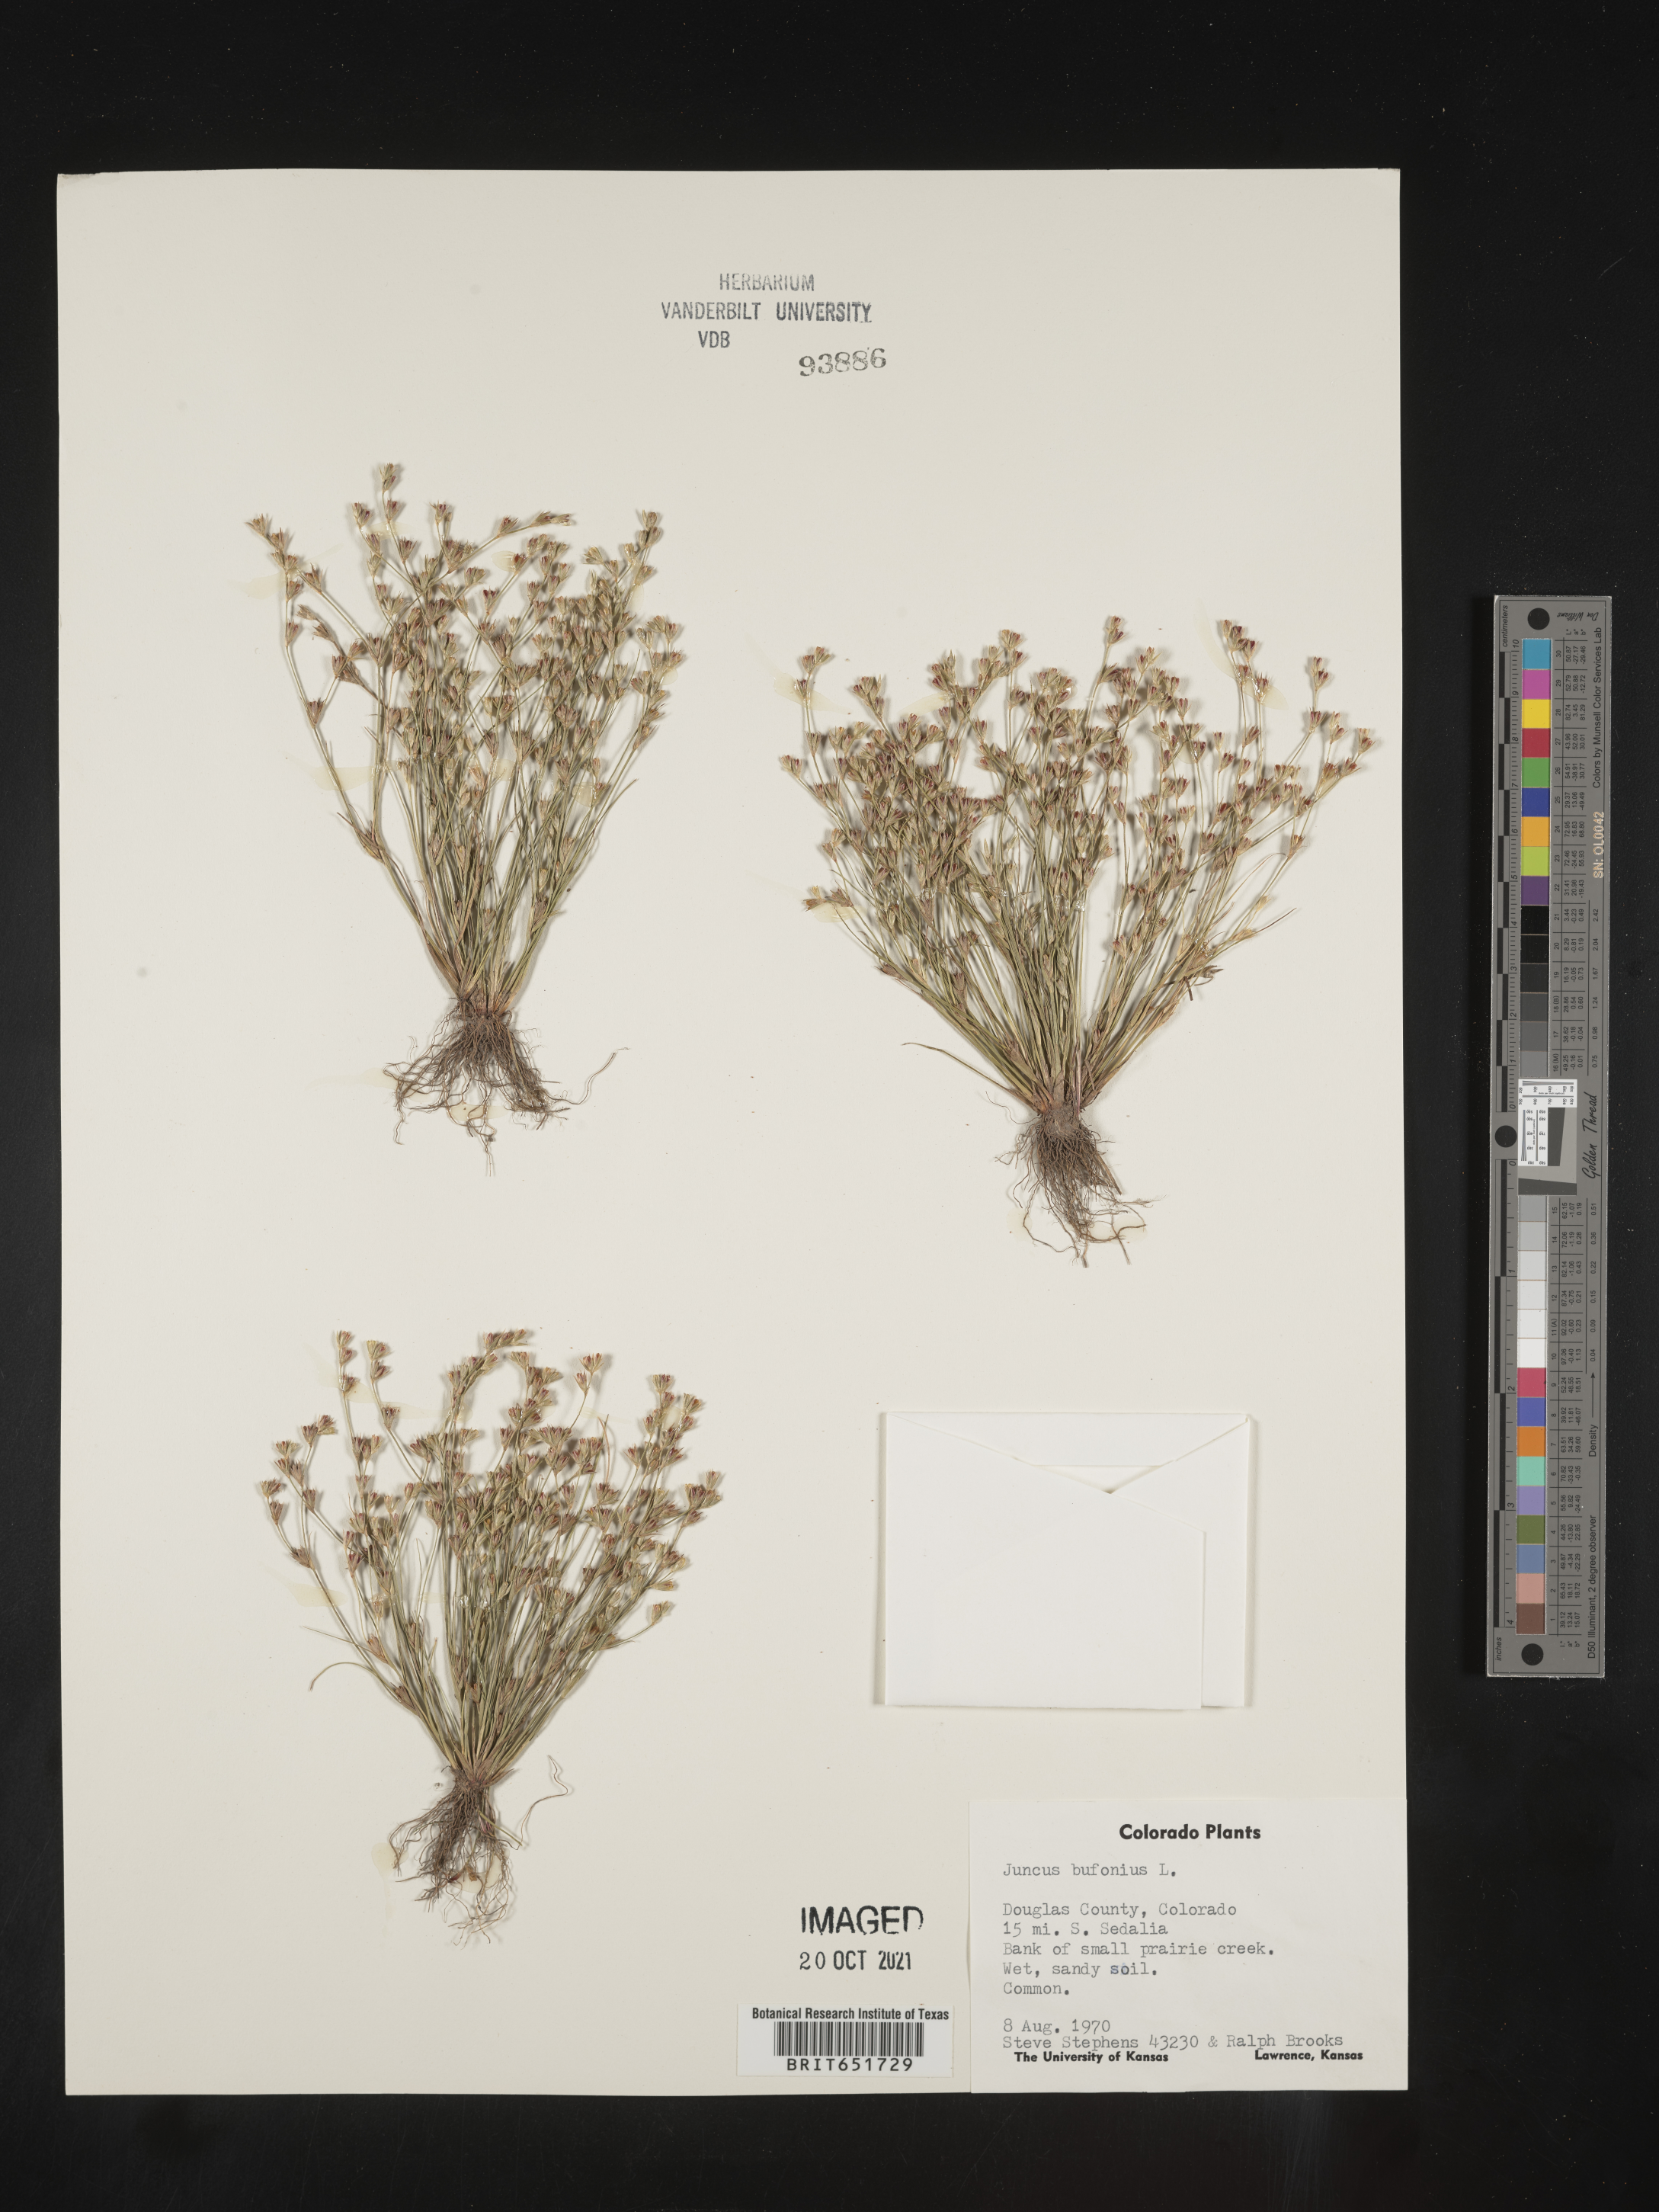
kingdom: Plantae
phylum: Tracheophyta
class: Liliopsida
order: Poales
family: Juncaceae
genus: Juncus
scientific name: Juncus bufonius
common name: Toad rush
